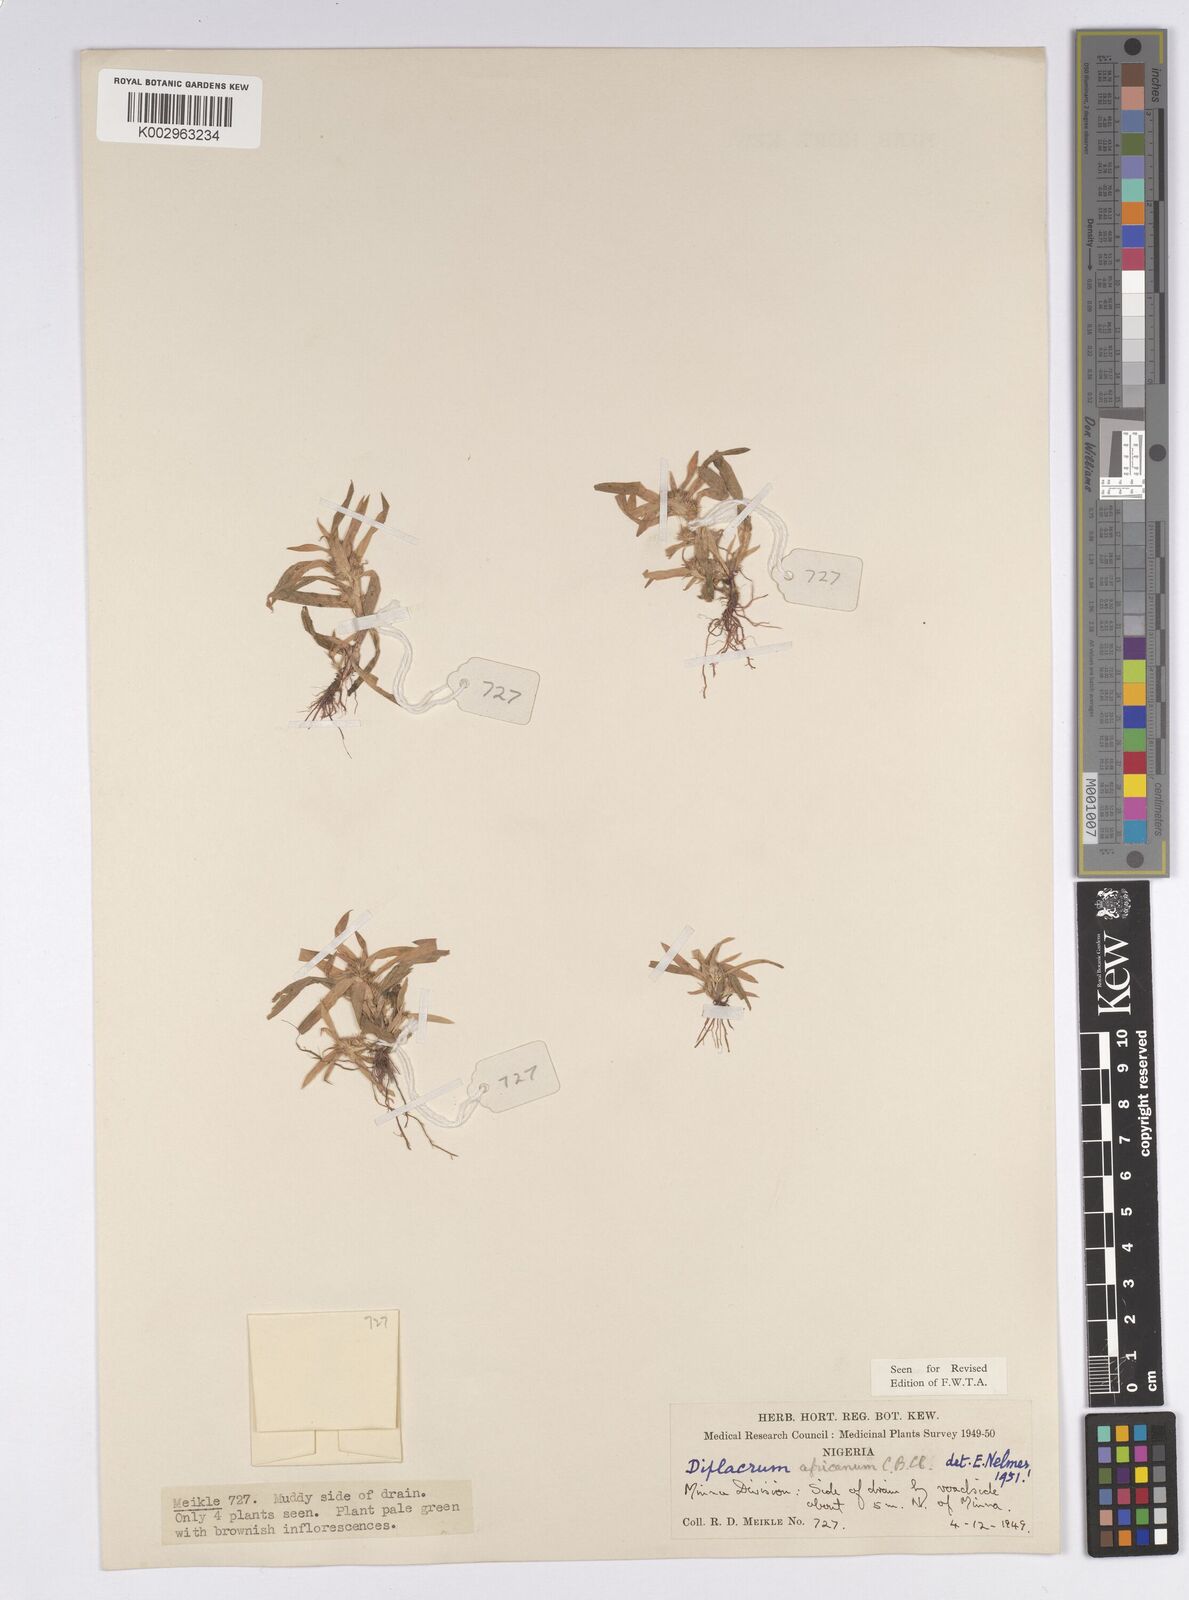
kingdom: Plantae
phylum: Tracheophyta
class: Liliopsida
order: Poales
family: Cyperaceae
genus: Diplacrum
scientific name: Diplacrum africanum
